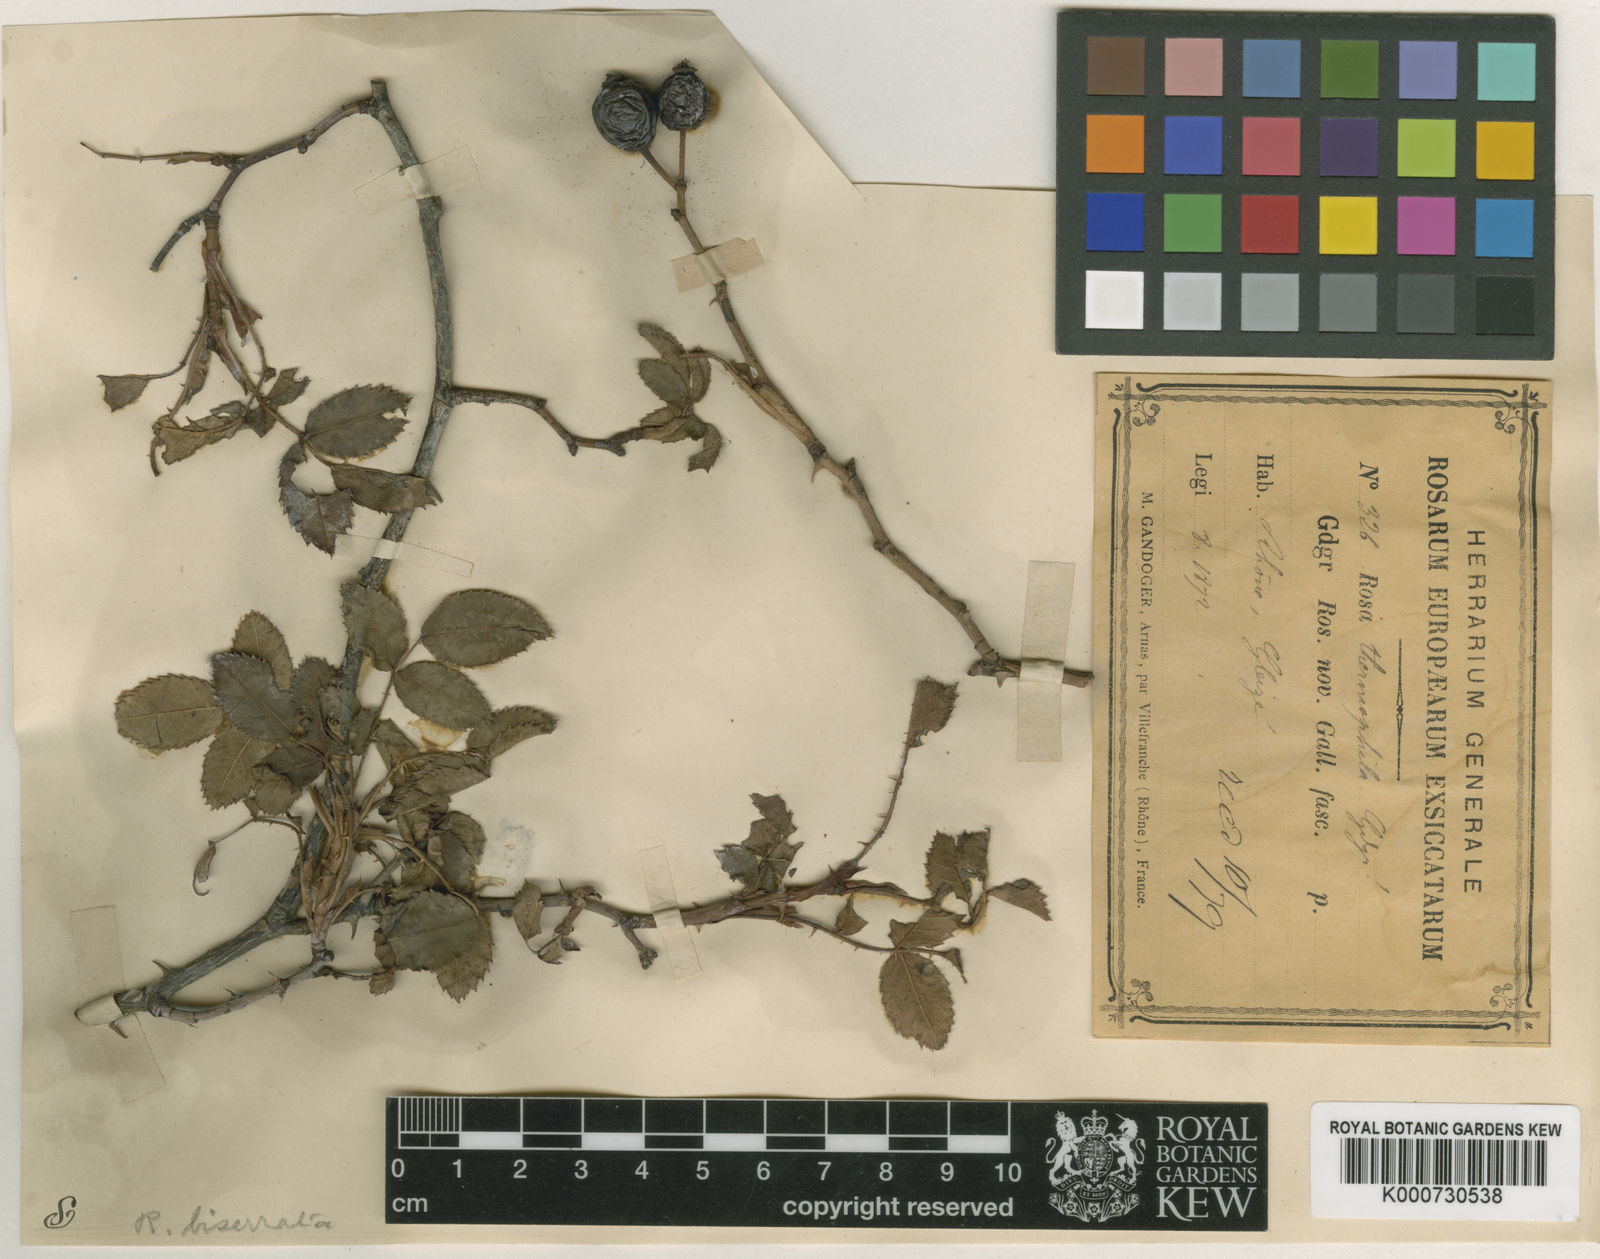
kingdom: Plantae
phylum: Tracheophyta
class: Magnoliopsida
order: Rosales
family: Rosaceae
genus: Rosa
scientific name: Rosa canina
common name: Dog rose
